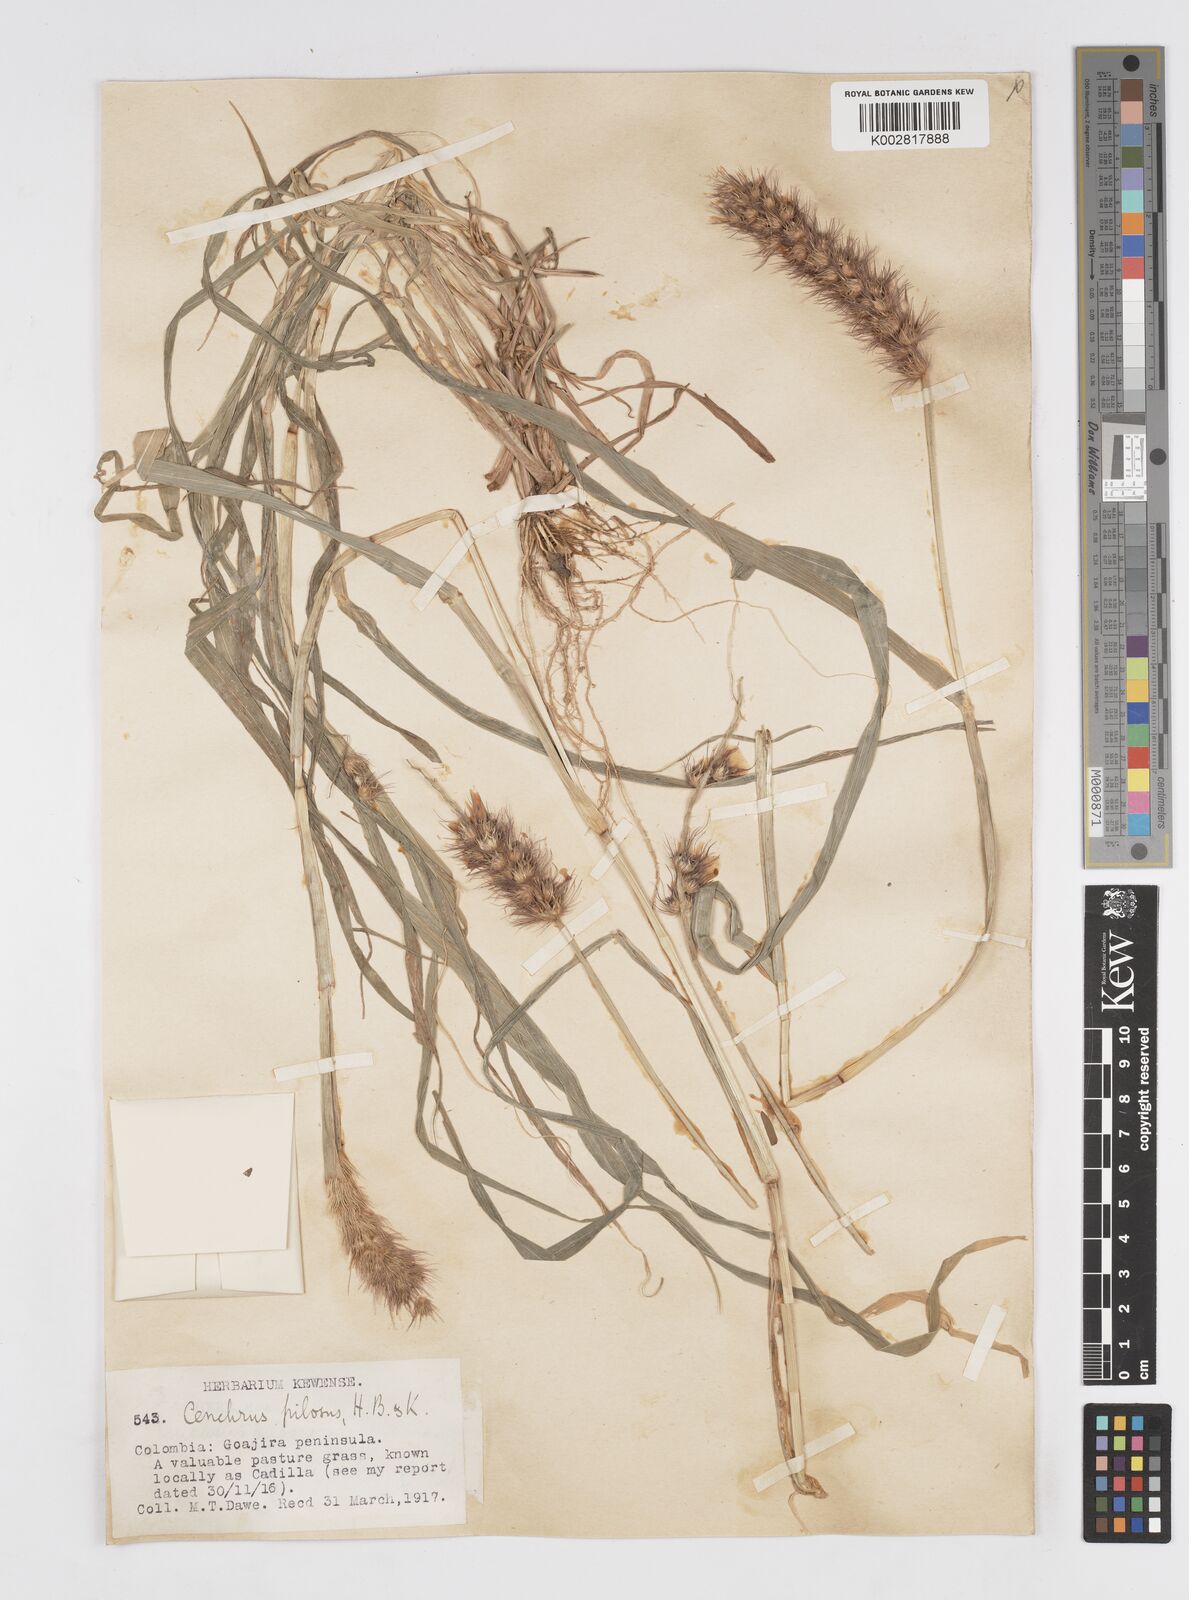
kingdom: Plantae
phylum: Tracheophyta
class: Liliopsida
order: Poales
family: Poaceae
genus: Cenchrus
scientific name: Cenchrus pilosus
